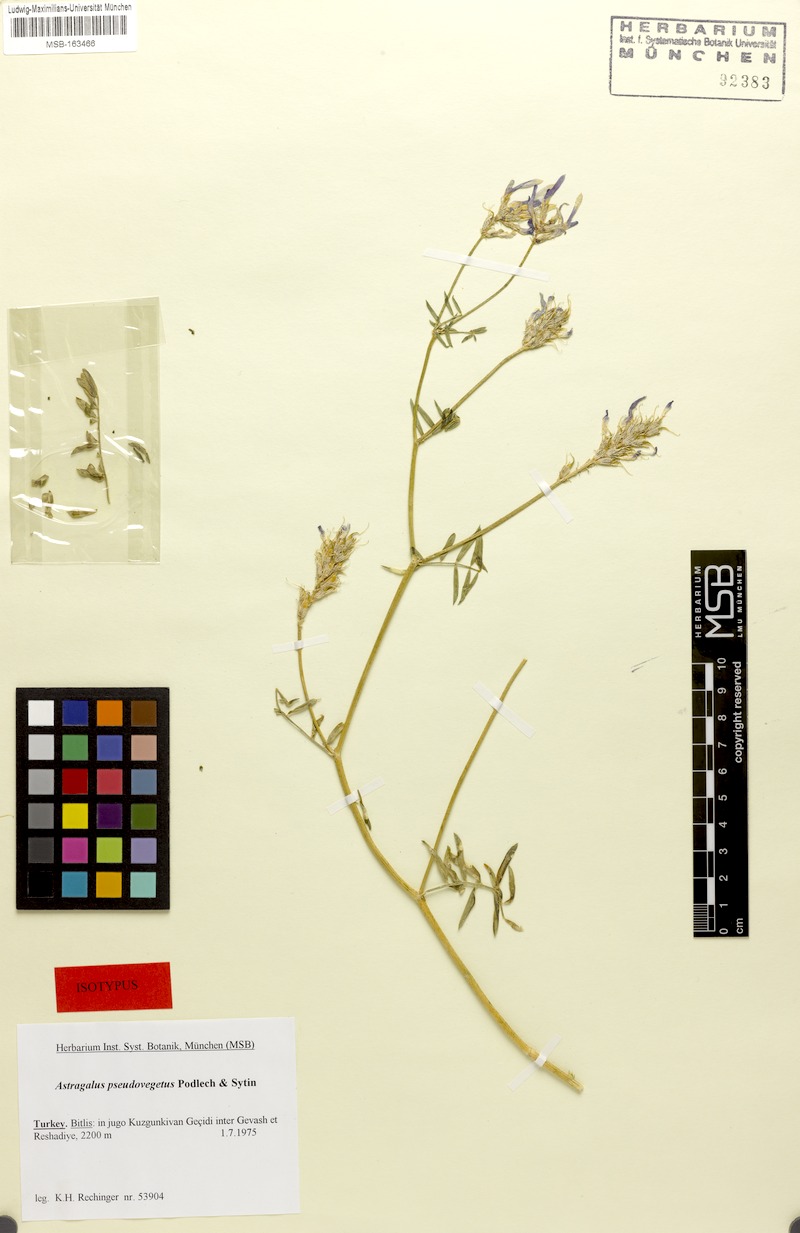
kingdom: Plantae
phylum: Tracheophyta
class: Magnoliopsida
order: Fabales
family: Fabaceae
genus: Astragalus
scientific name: Astragalus aduncus
